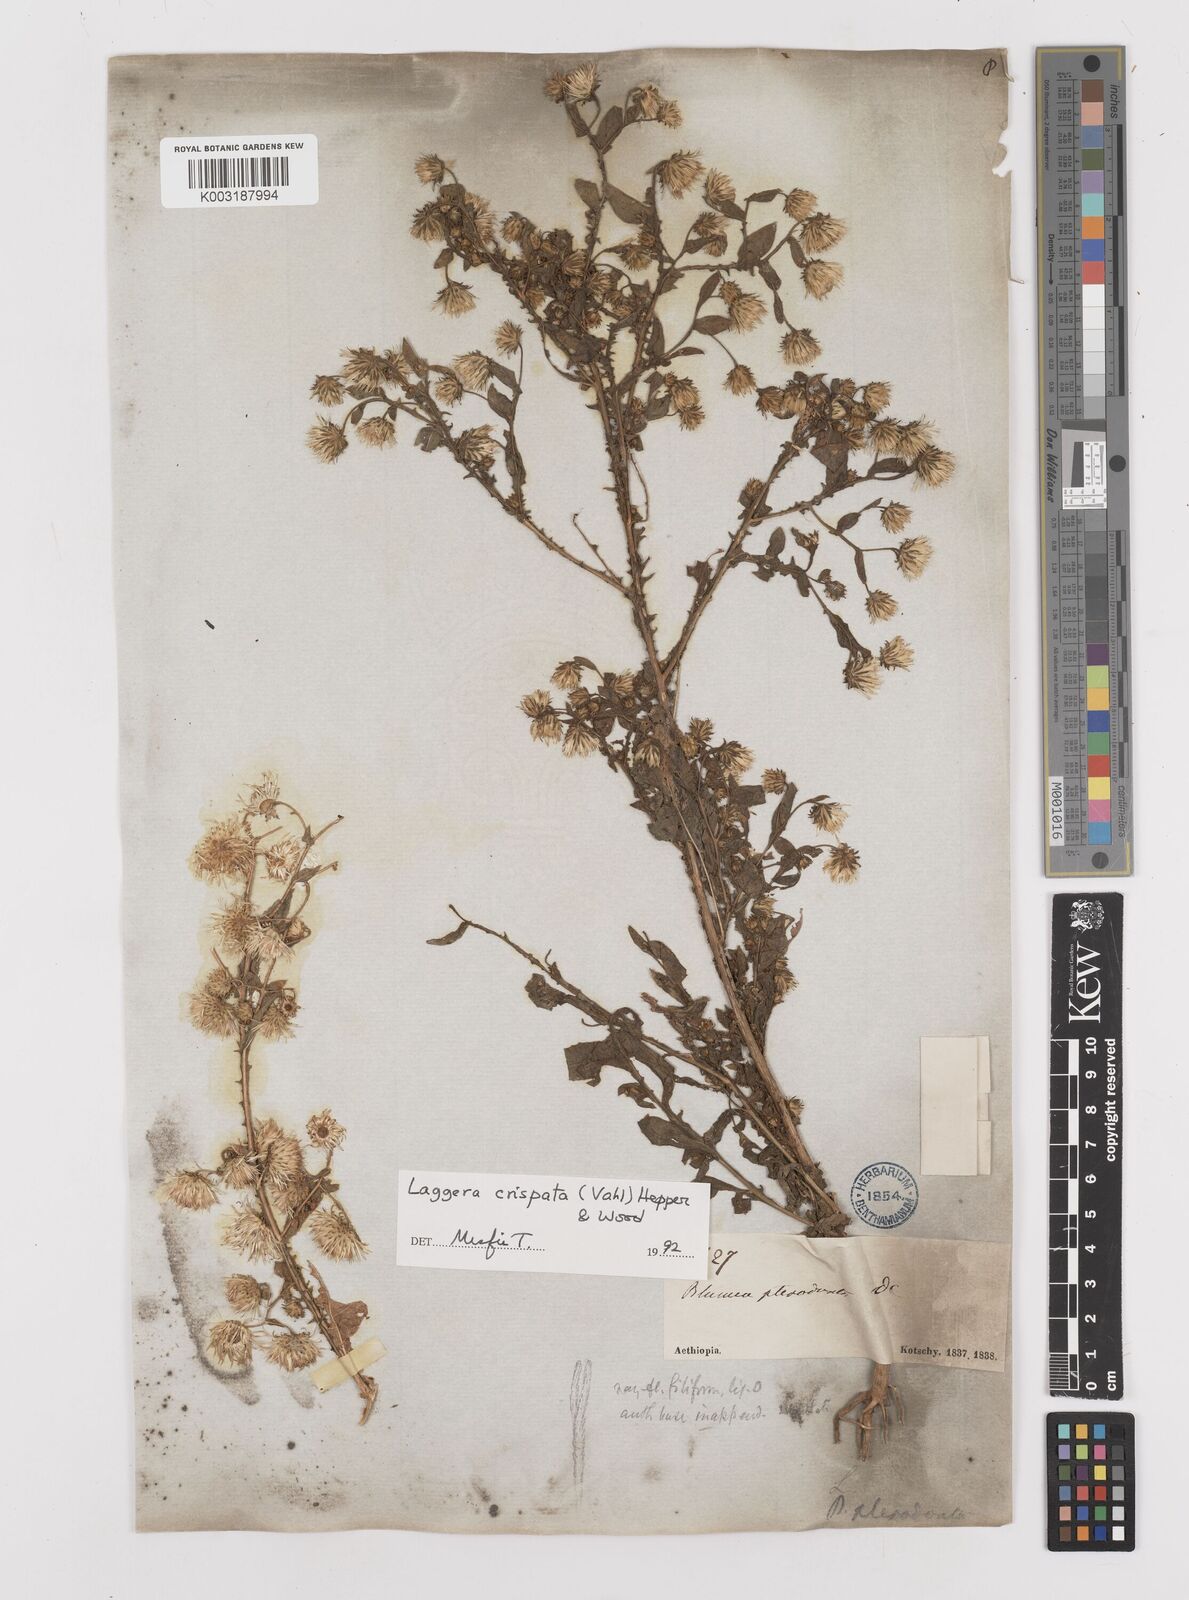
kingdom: Plantae
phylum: Tracheophyta
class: Magnoliopsida
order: Asterales
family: Asteraceae
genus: Laggera
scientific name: Laggera crispata
